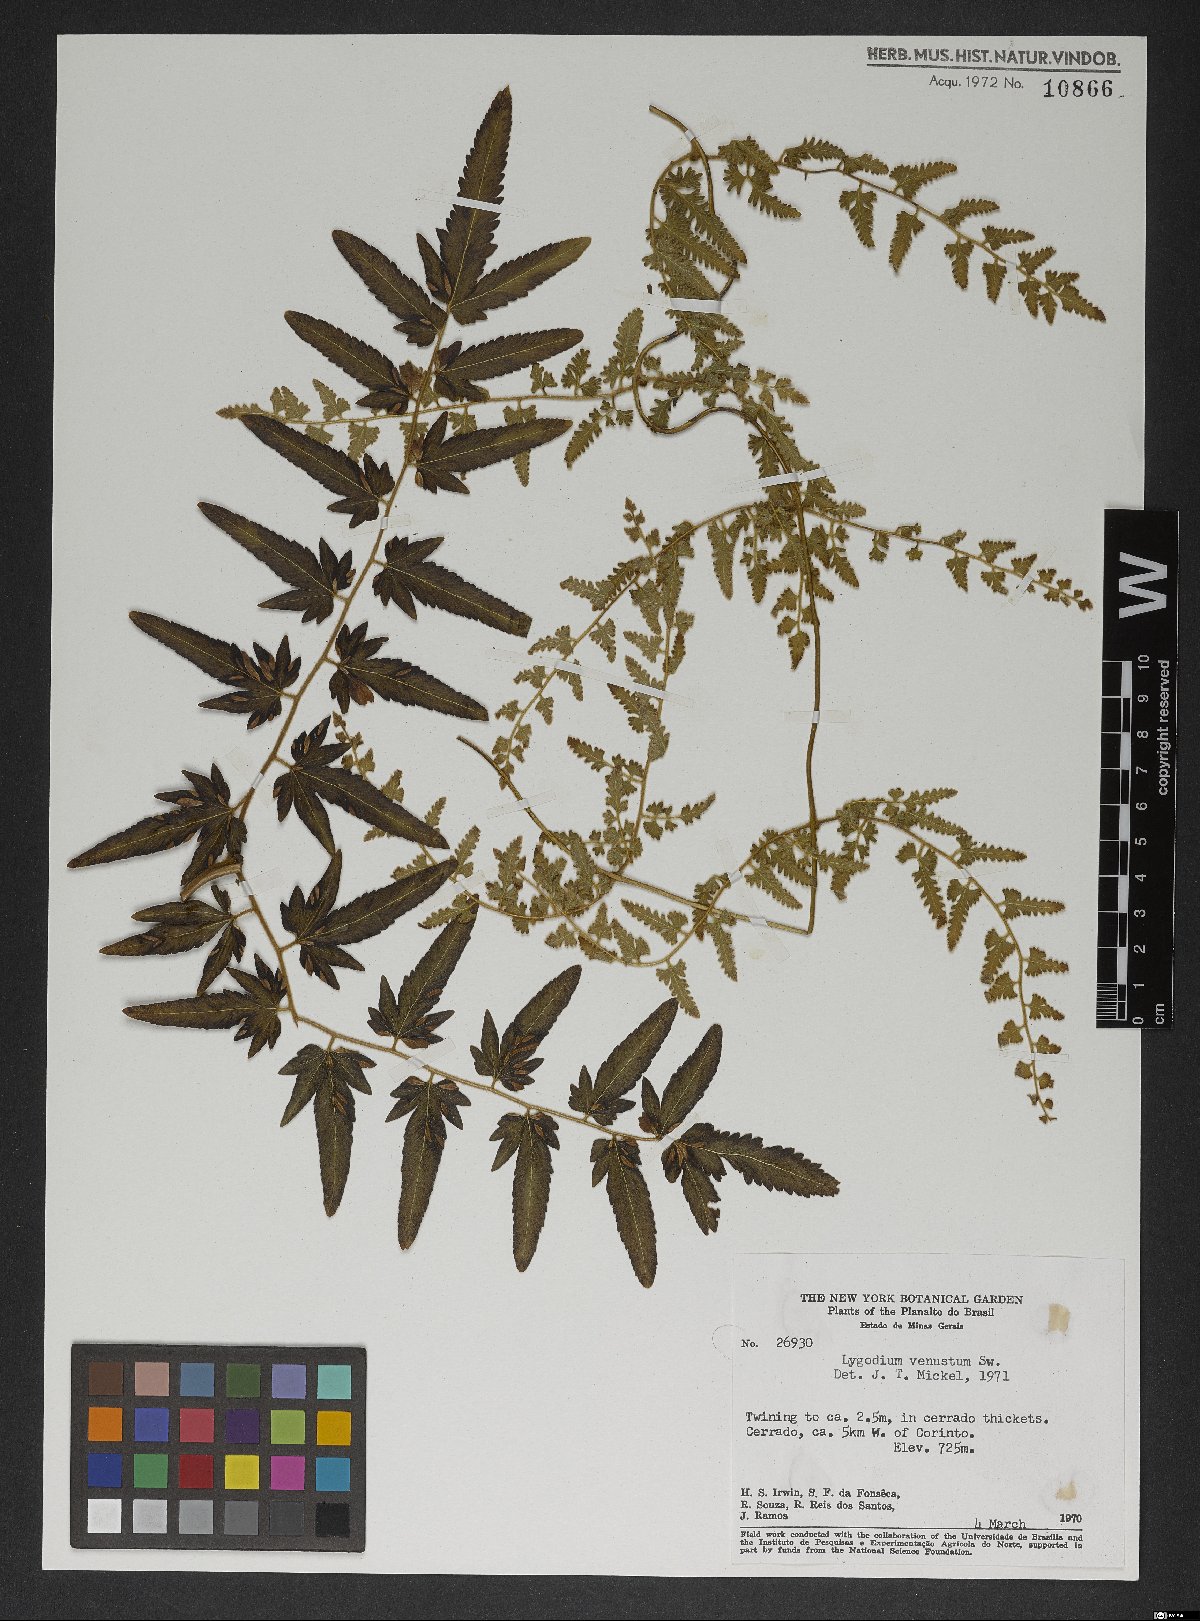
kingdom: Plantae
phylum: Tracheophyta
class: Polypodiopsida
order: Schizaeales
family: Lygodiaceae
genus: Lygodium
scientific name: Lygodium venustum
